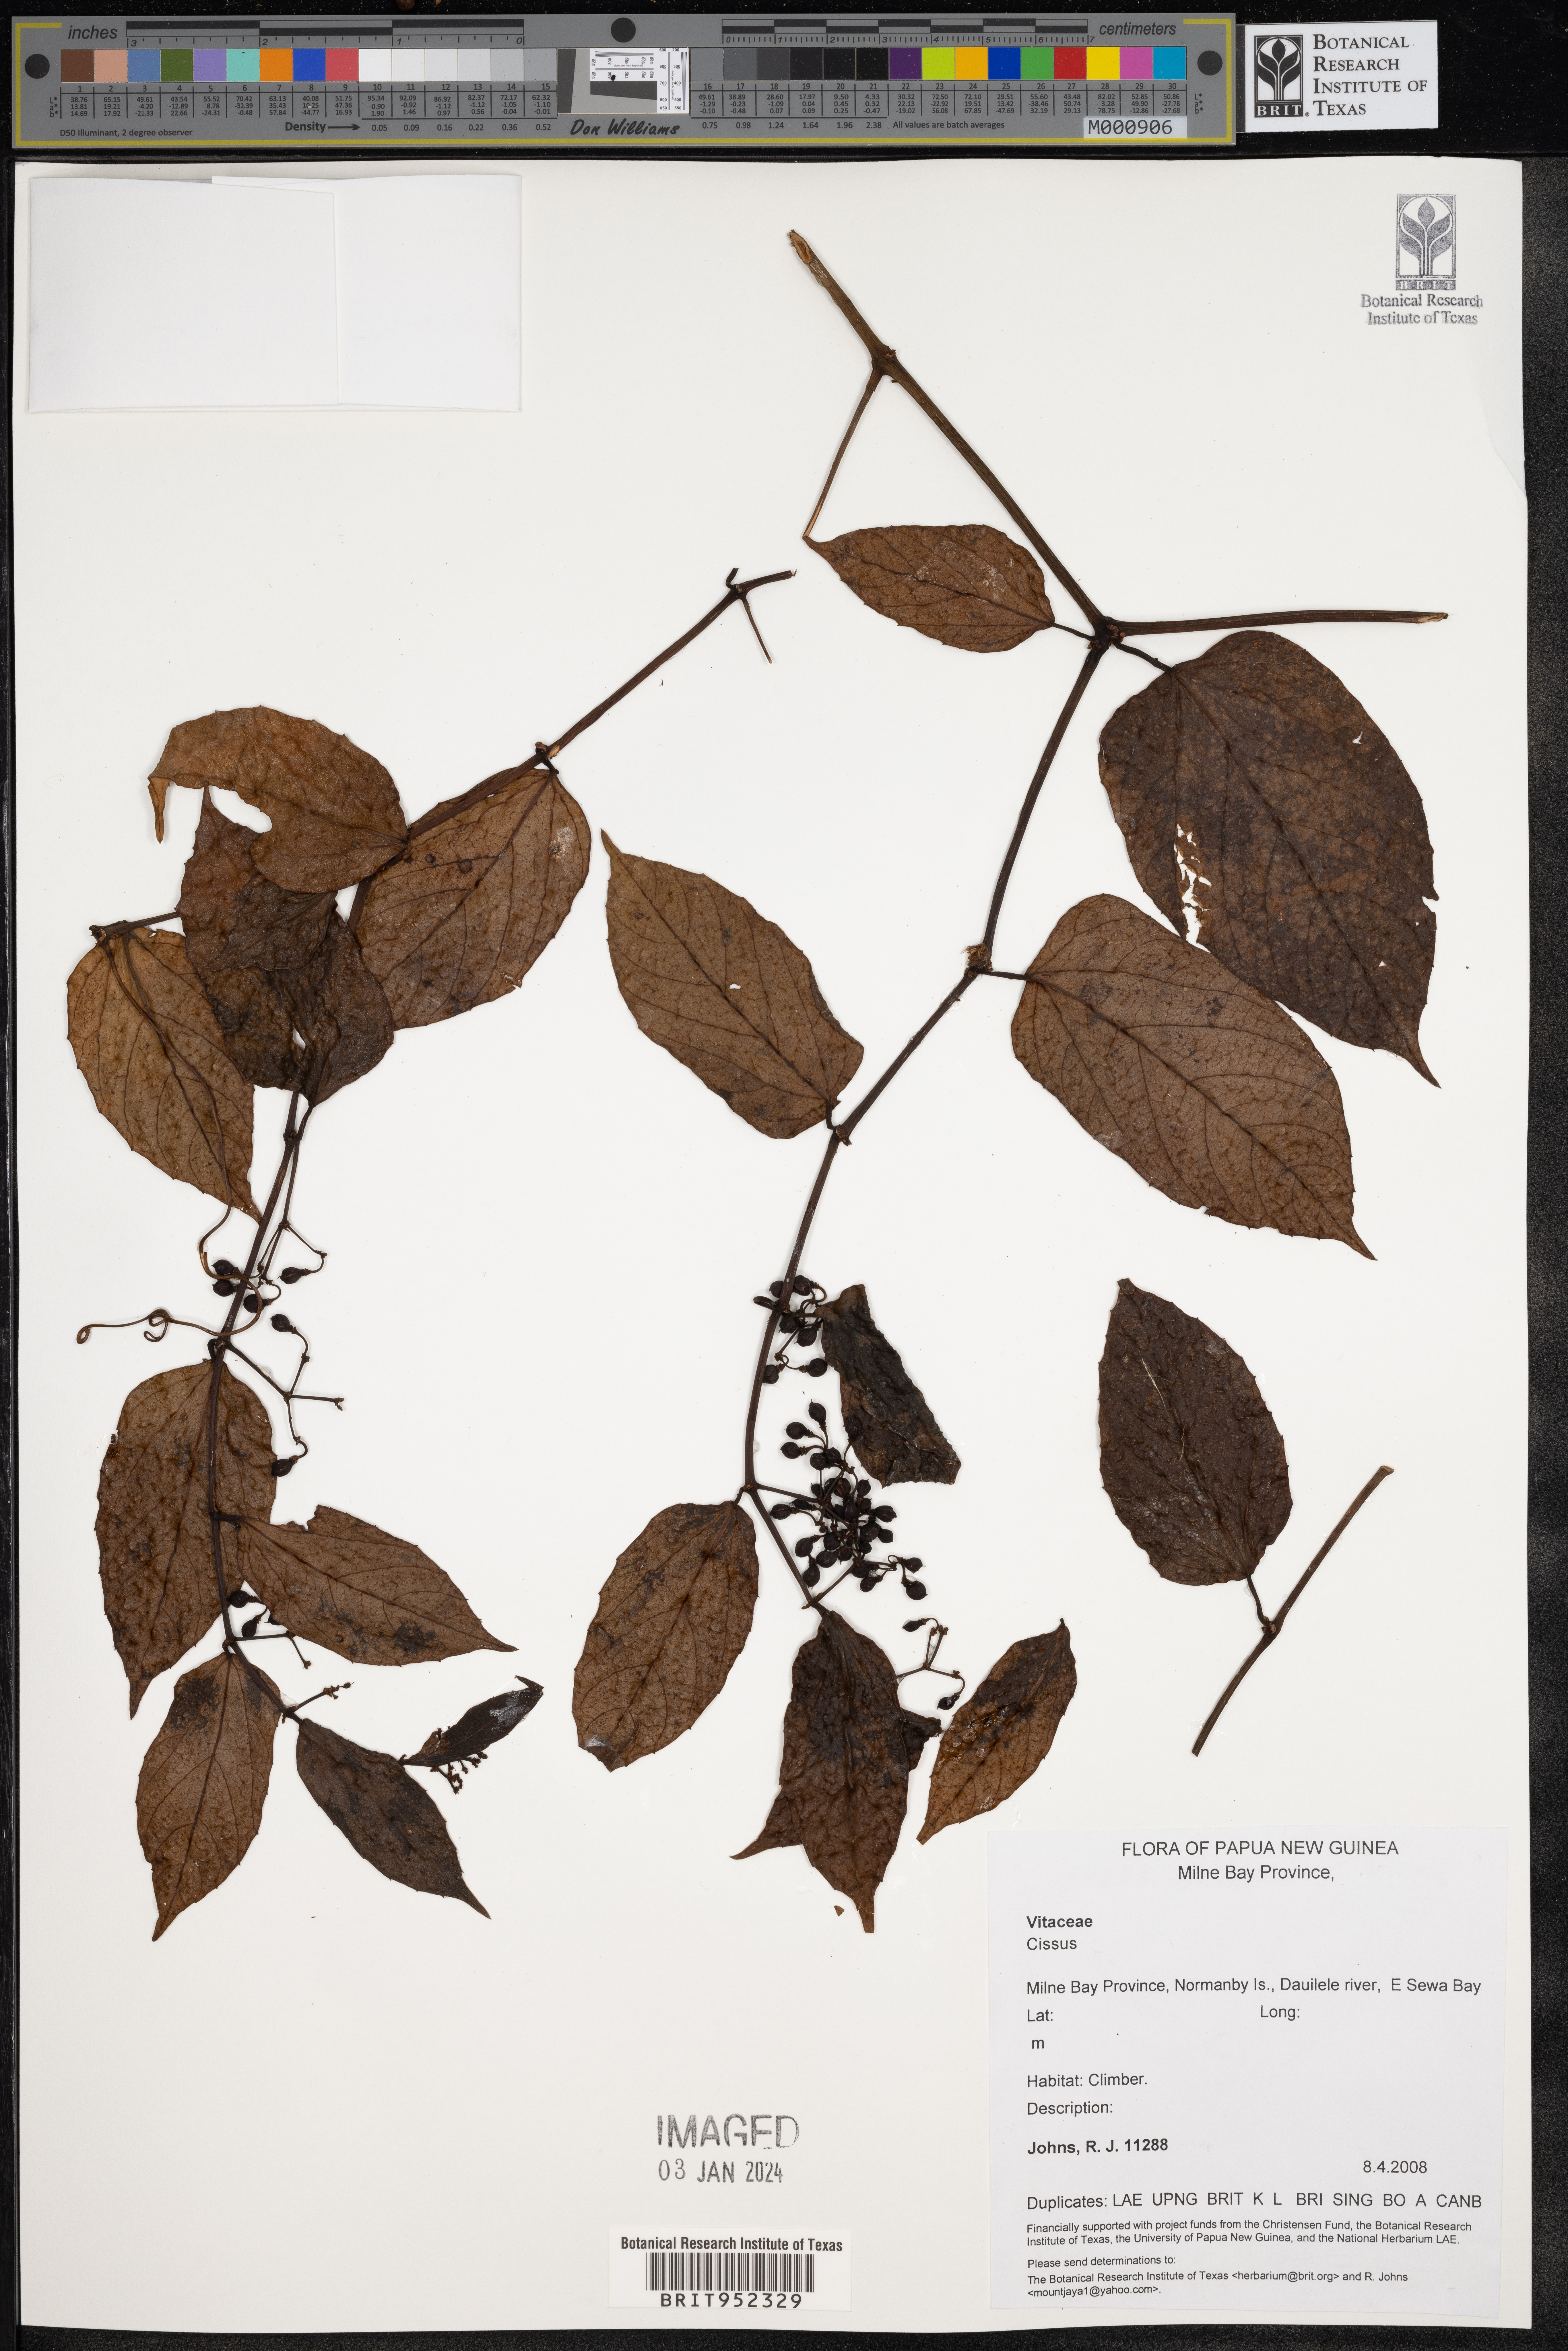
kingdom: Plantae
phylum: Tracheophyta
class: Magnoliopsida
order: Vitales
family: Vitaceae
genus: Cissus
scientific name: Cissus
